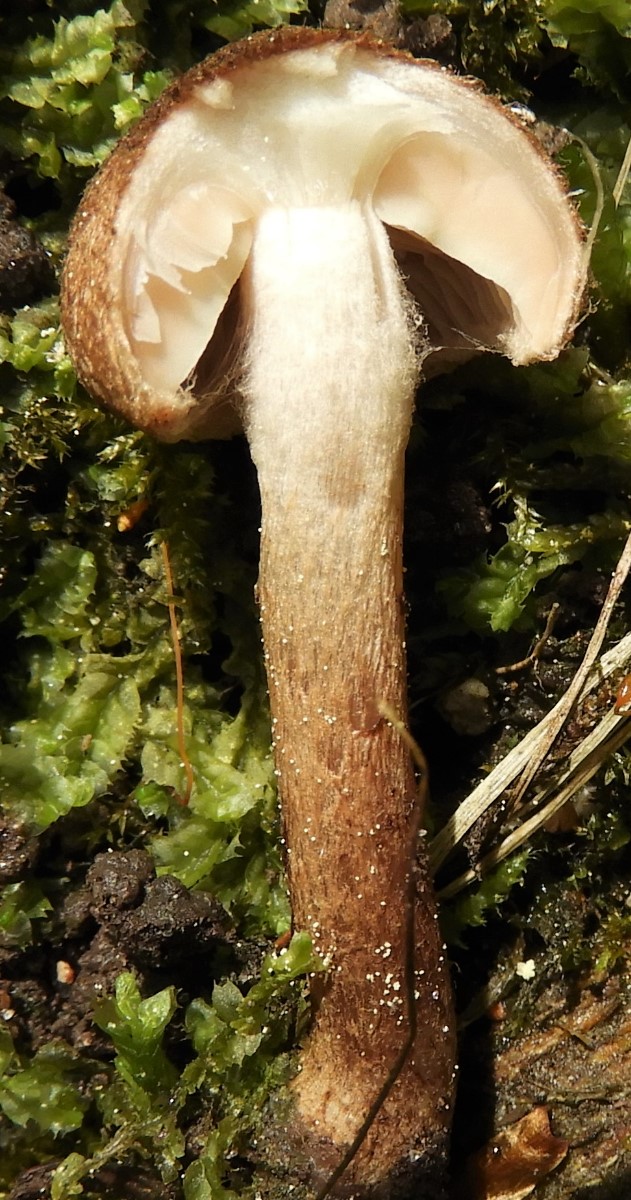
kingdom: Fungi
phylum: Basidiomycota
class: Agaricomycetes
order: Agaricales
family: Inocybaceae
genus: Inocybe
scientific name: Inocybe
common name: trævlhat
